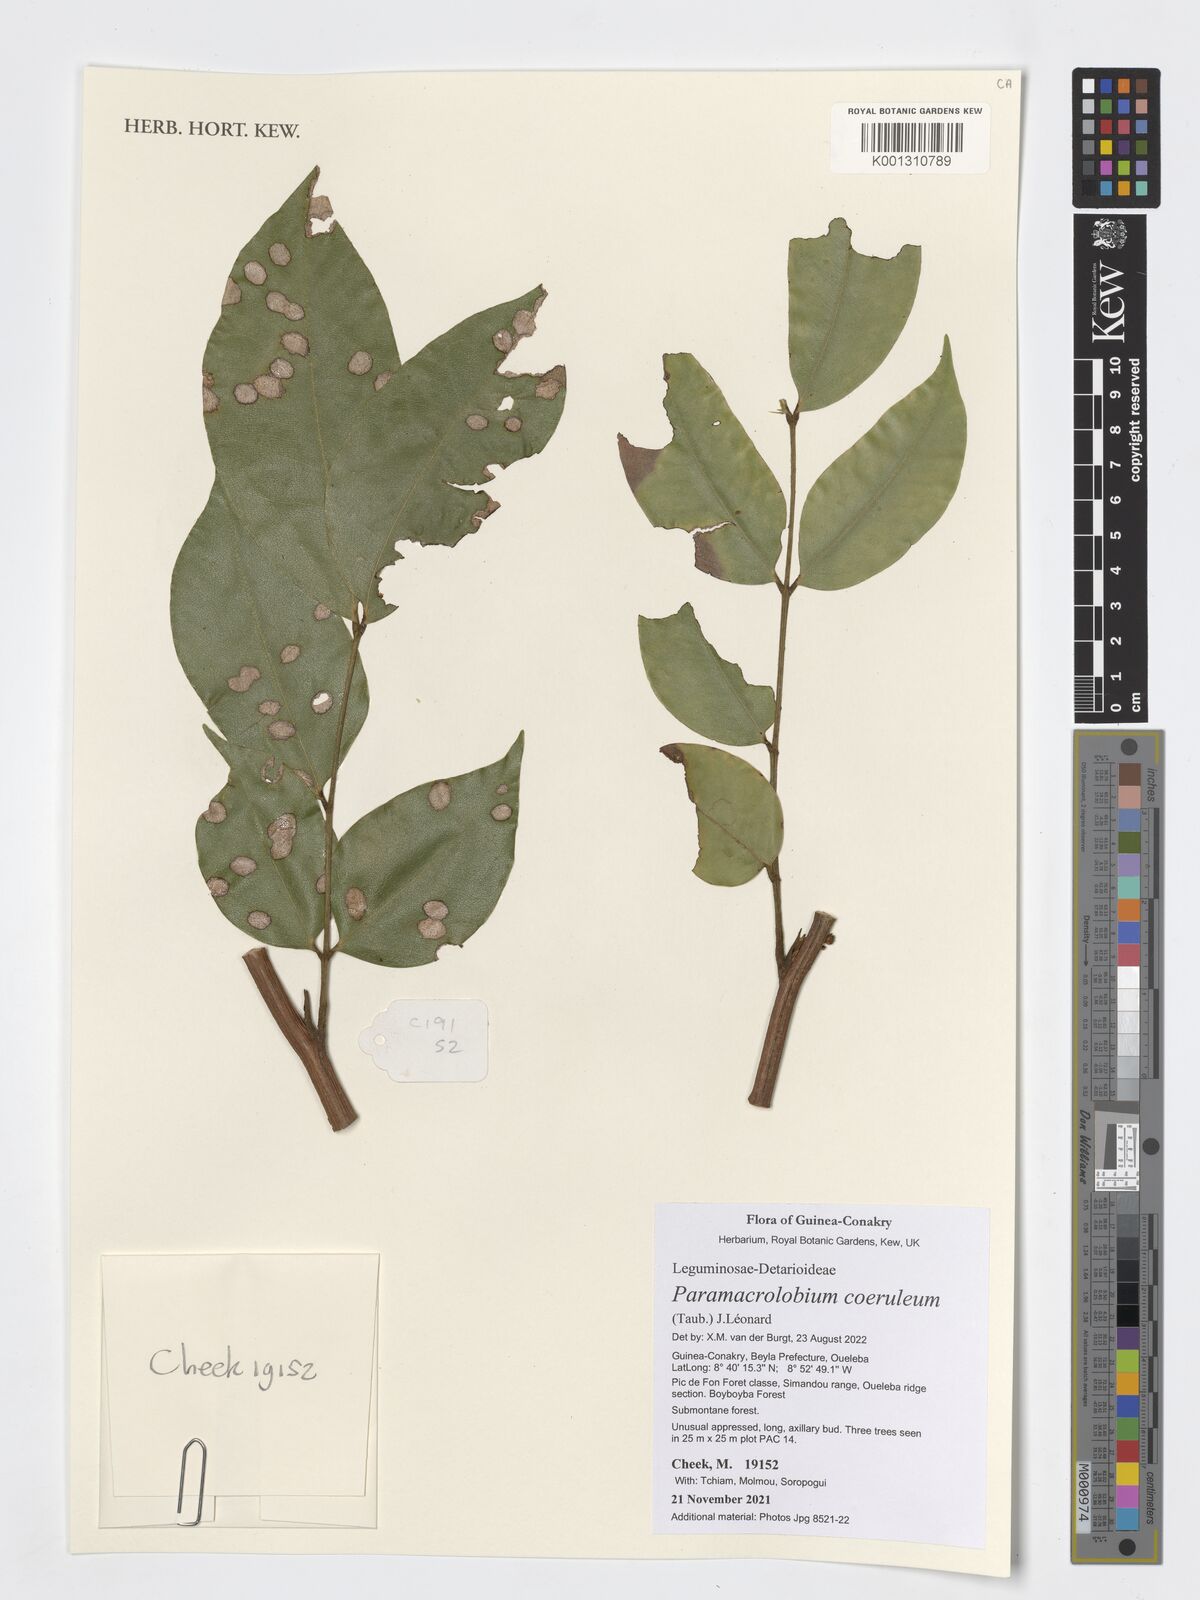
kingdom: Plantae
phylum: Tracheophyta
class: Magnoliopsida
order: Fabales
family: Fabaceae
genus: Paramacrolobium
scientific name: Paramacrolobium coeruleum
